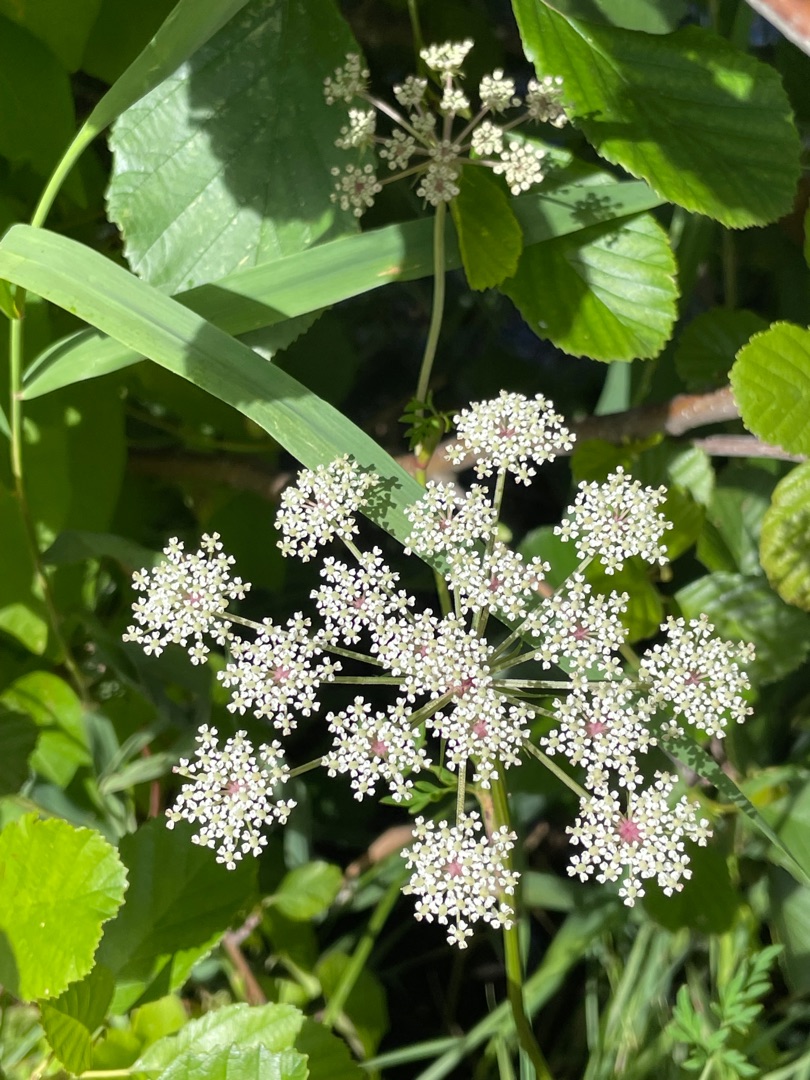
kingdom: Plantae
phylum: Tracheophyta
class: Magnoliopsida
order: Apiales
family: Apiaceae
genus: Thysselinum
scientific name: Thysselinum palustre
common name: Kær-svovlrod
